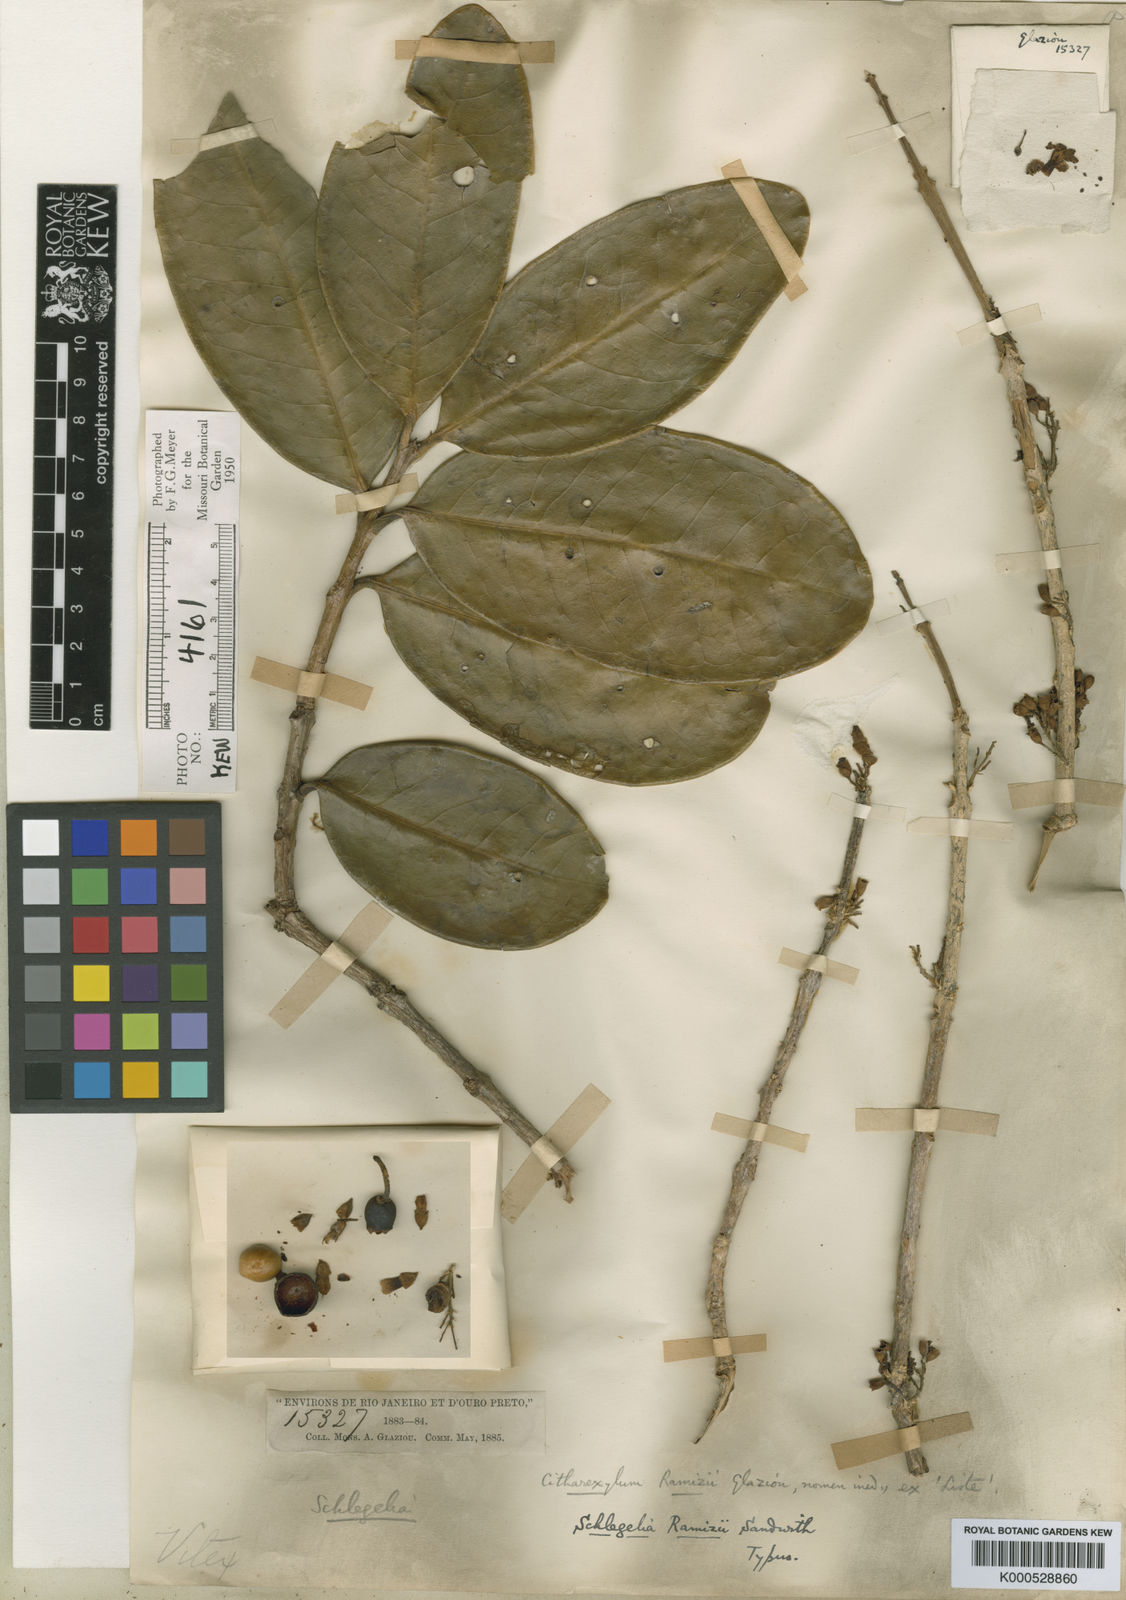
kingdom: Plantae
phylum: Tracheophyta
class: Magnoliopsida
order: Lamiales
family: Schlegeliaceae
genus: Schlegelia
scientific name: Schlegelia parviflora
